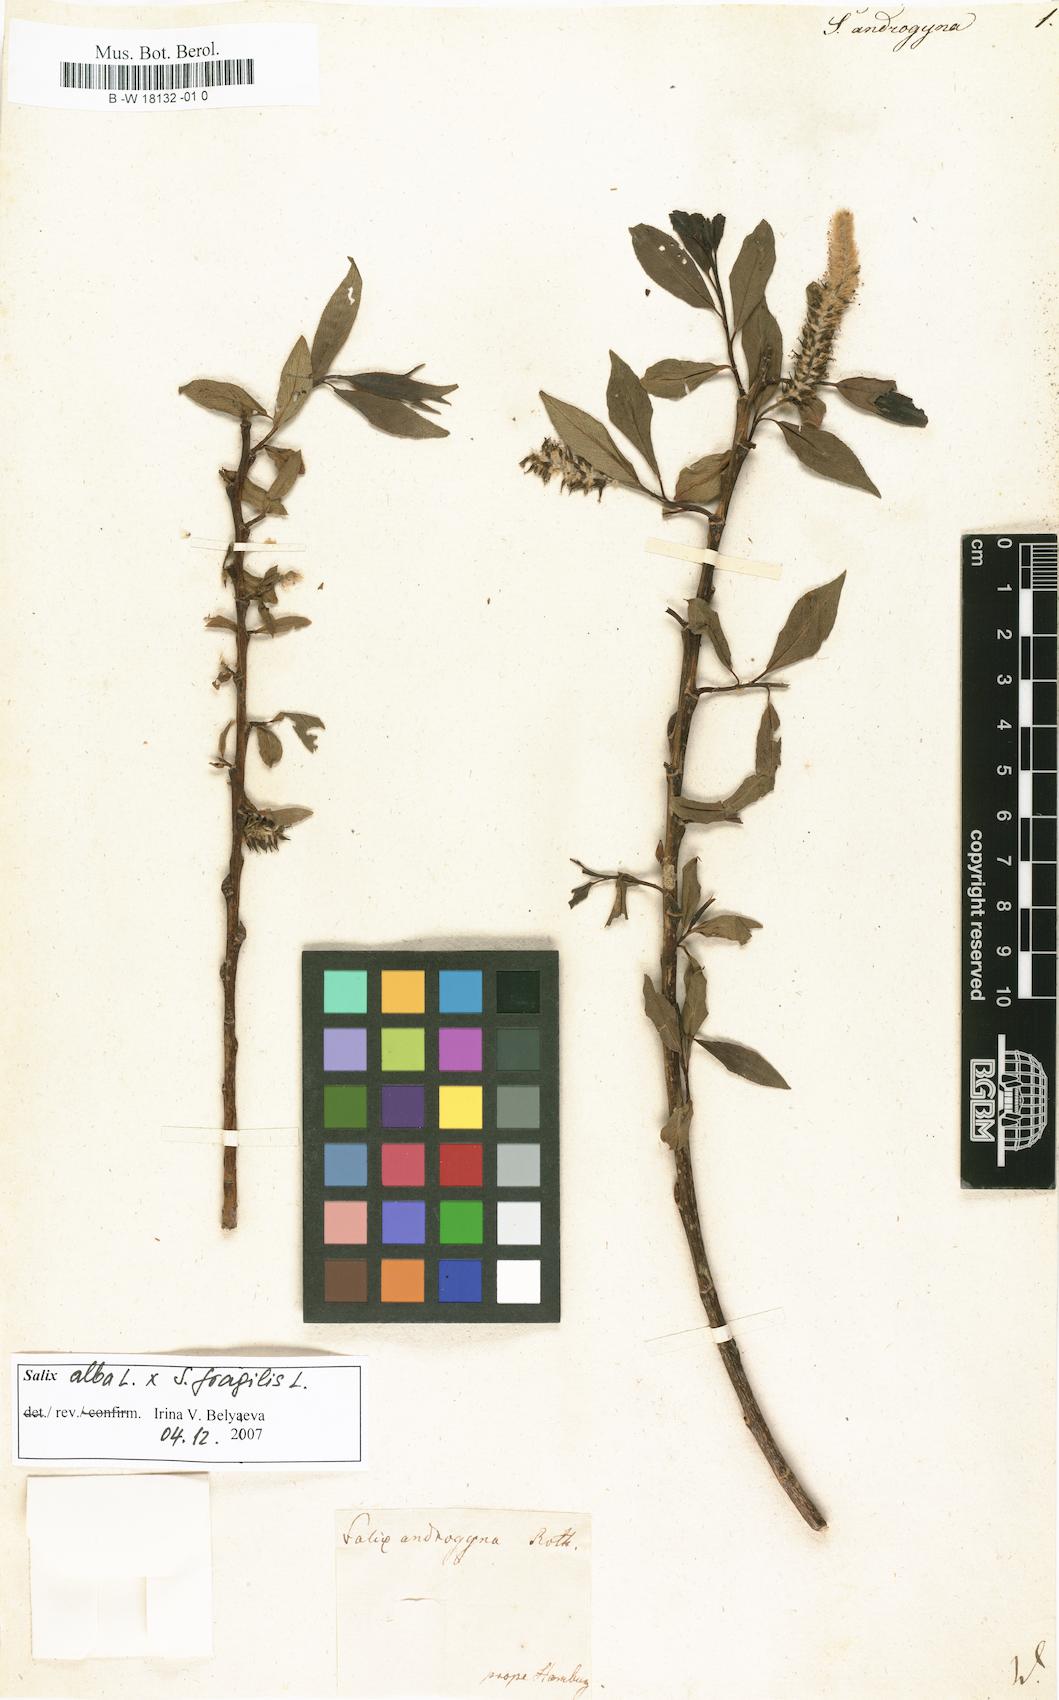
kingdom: Plantae
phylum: Tracheophyta
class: Magnoliopsida
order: Malpighiales
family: Salicaceae
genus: Salix
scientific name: Salix triandra
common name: Almond willow
